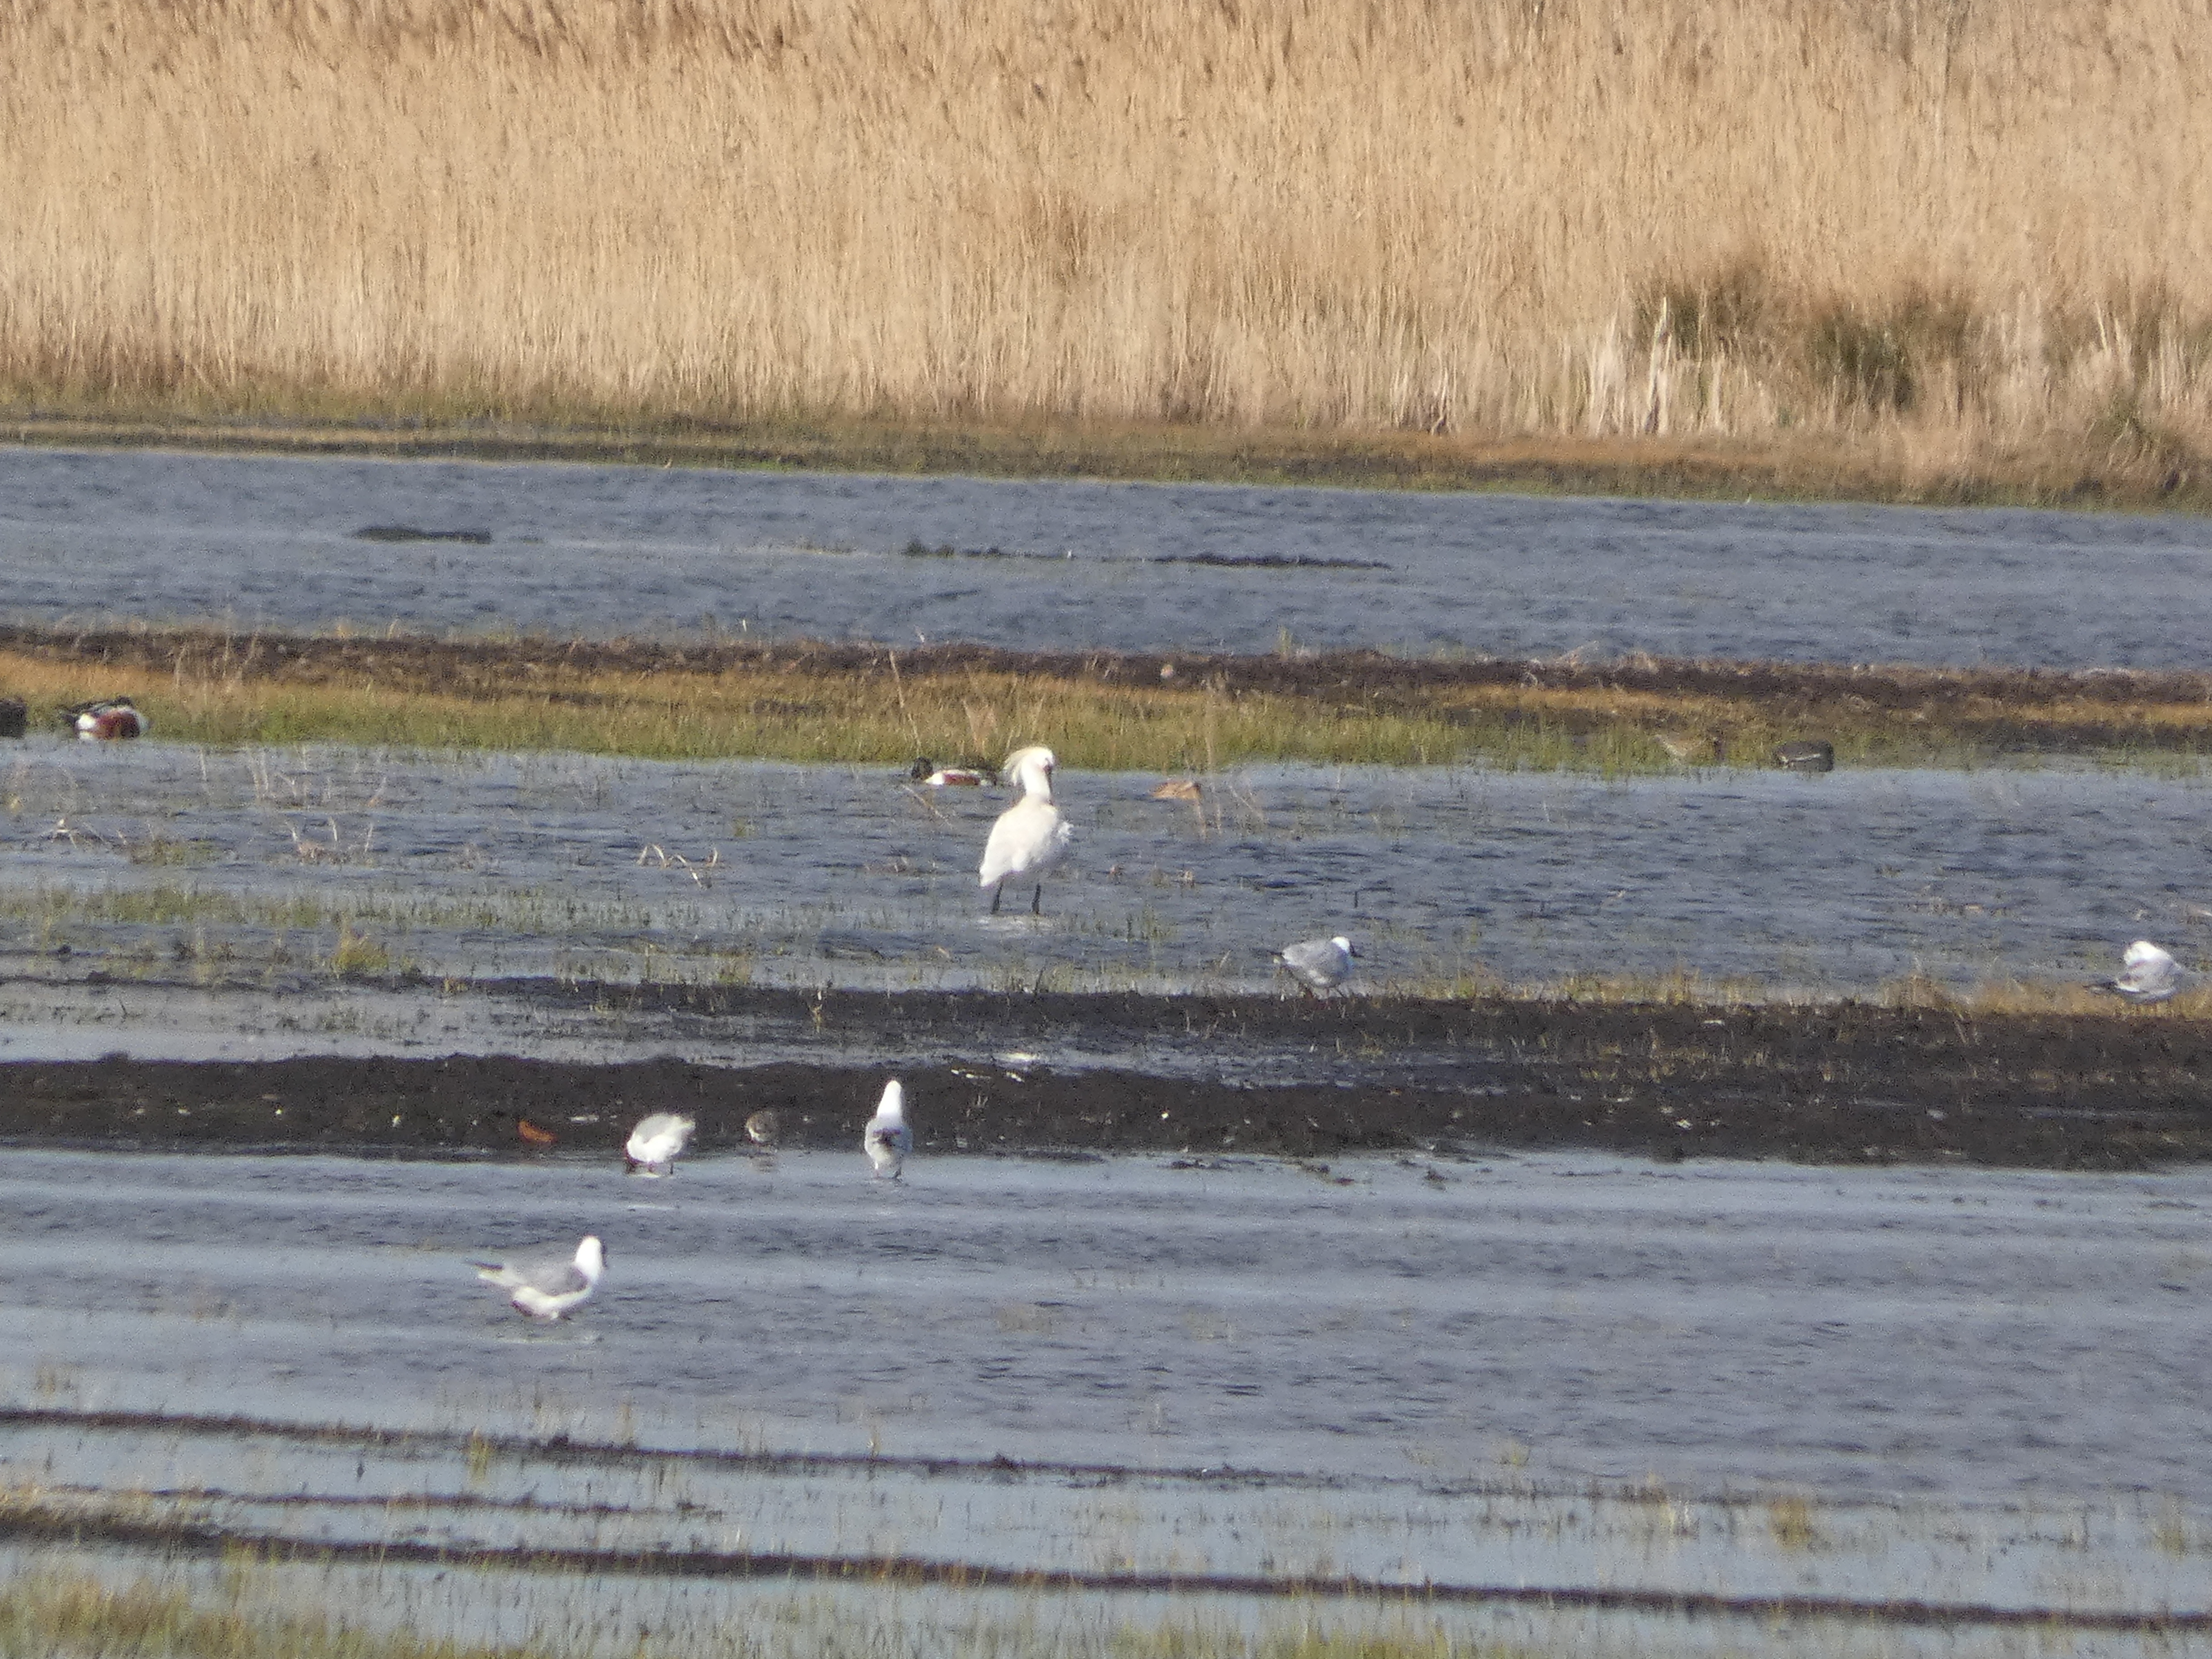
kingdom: Animalia
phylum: Chordata
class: Aves
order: Anseriformes
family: Anatidae
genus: Spatula
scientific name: Spatula clypeata
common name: Skeand
